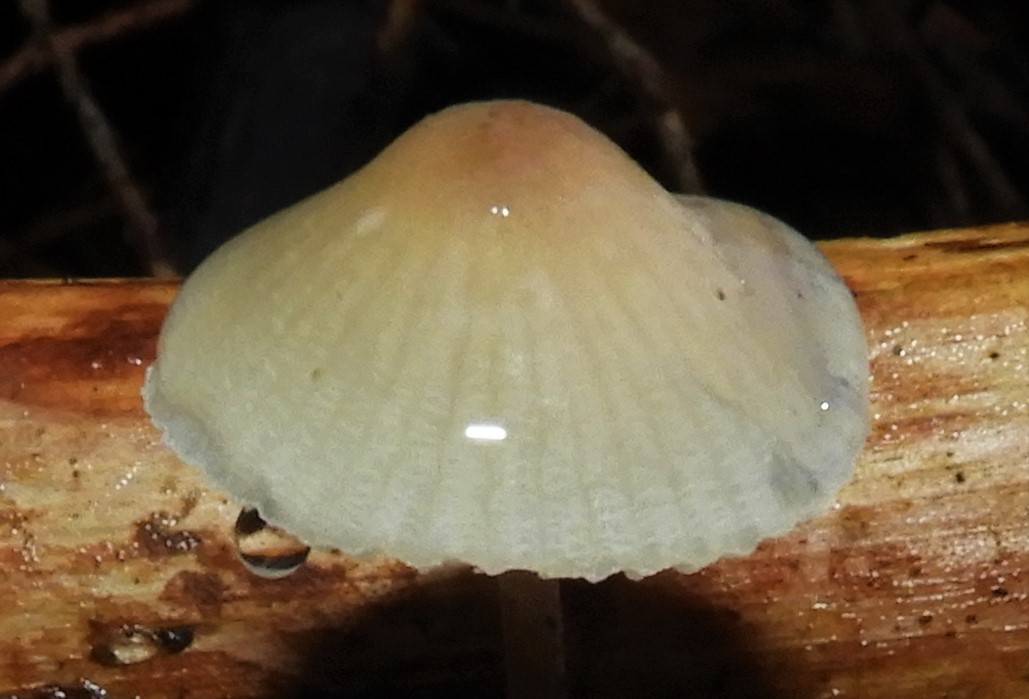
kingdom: Fungi
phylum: Basidiomycota
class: Agaricomycetes
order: Agaricales
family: Mycenaceae
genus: Mycena
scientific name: Mycena
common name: huesvamp
